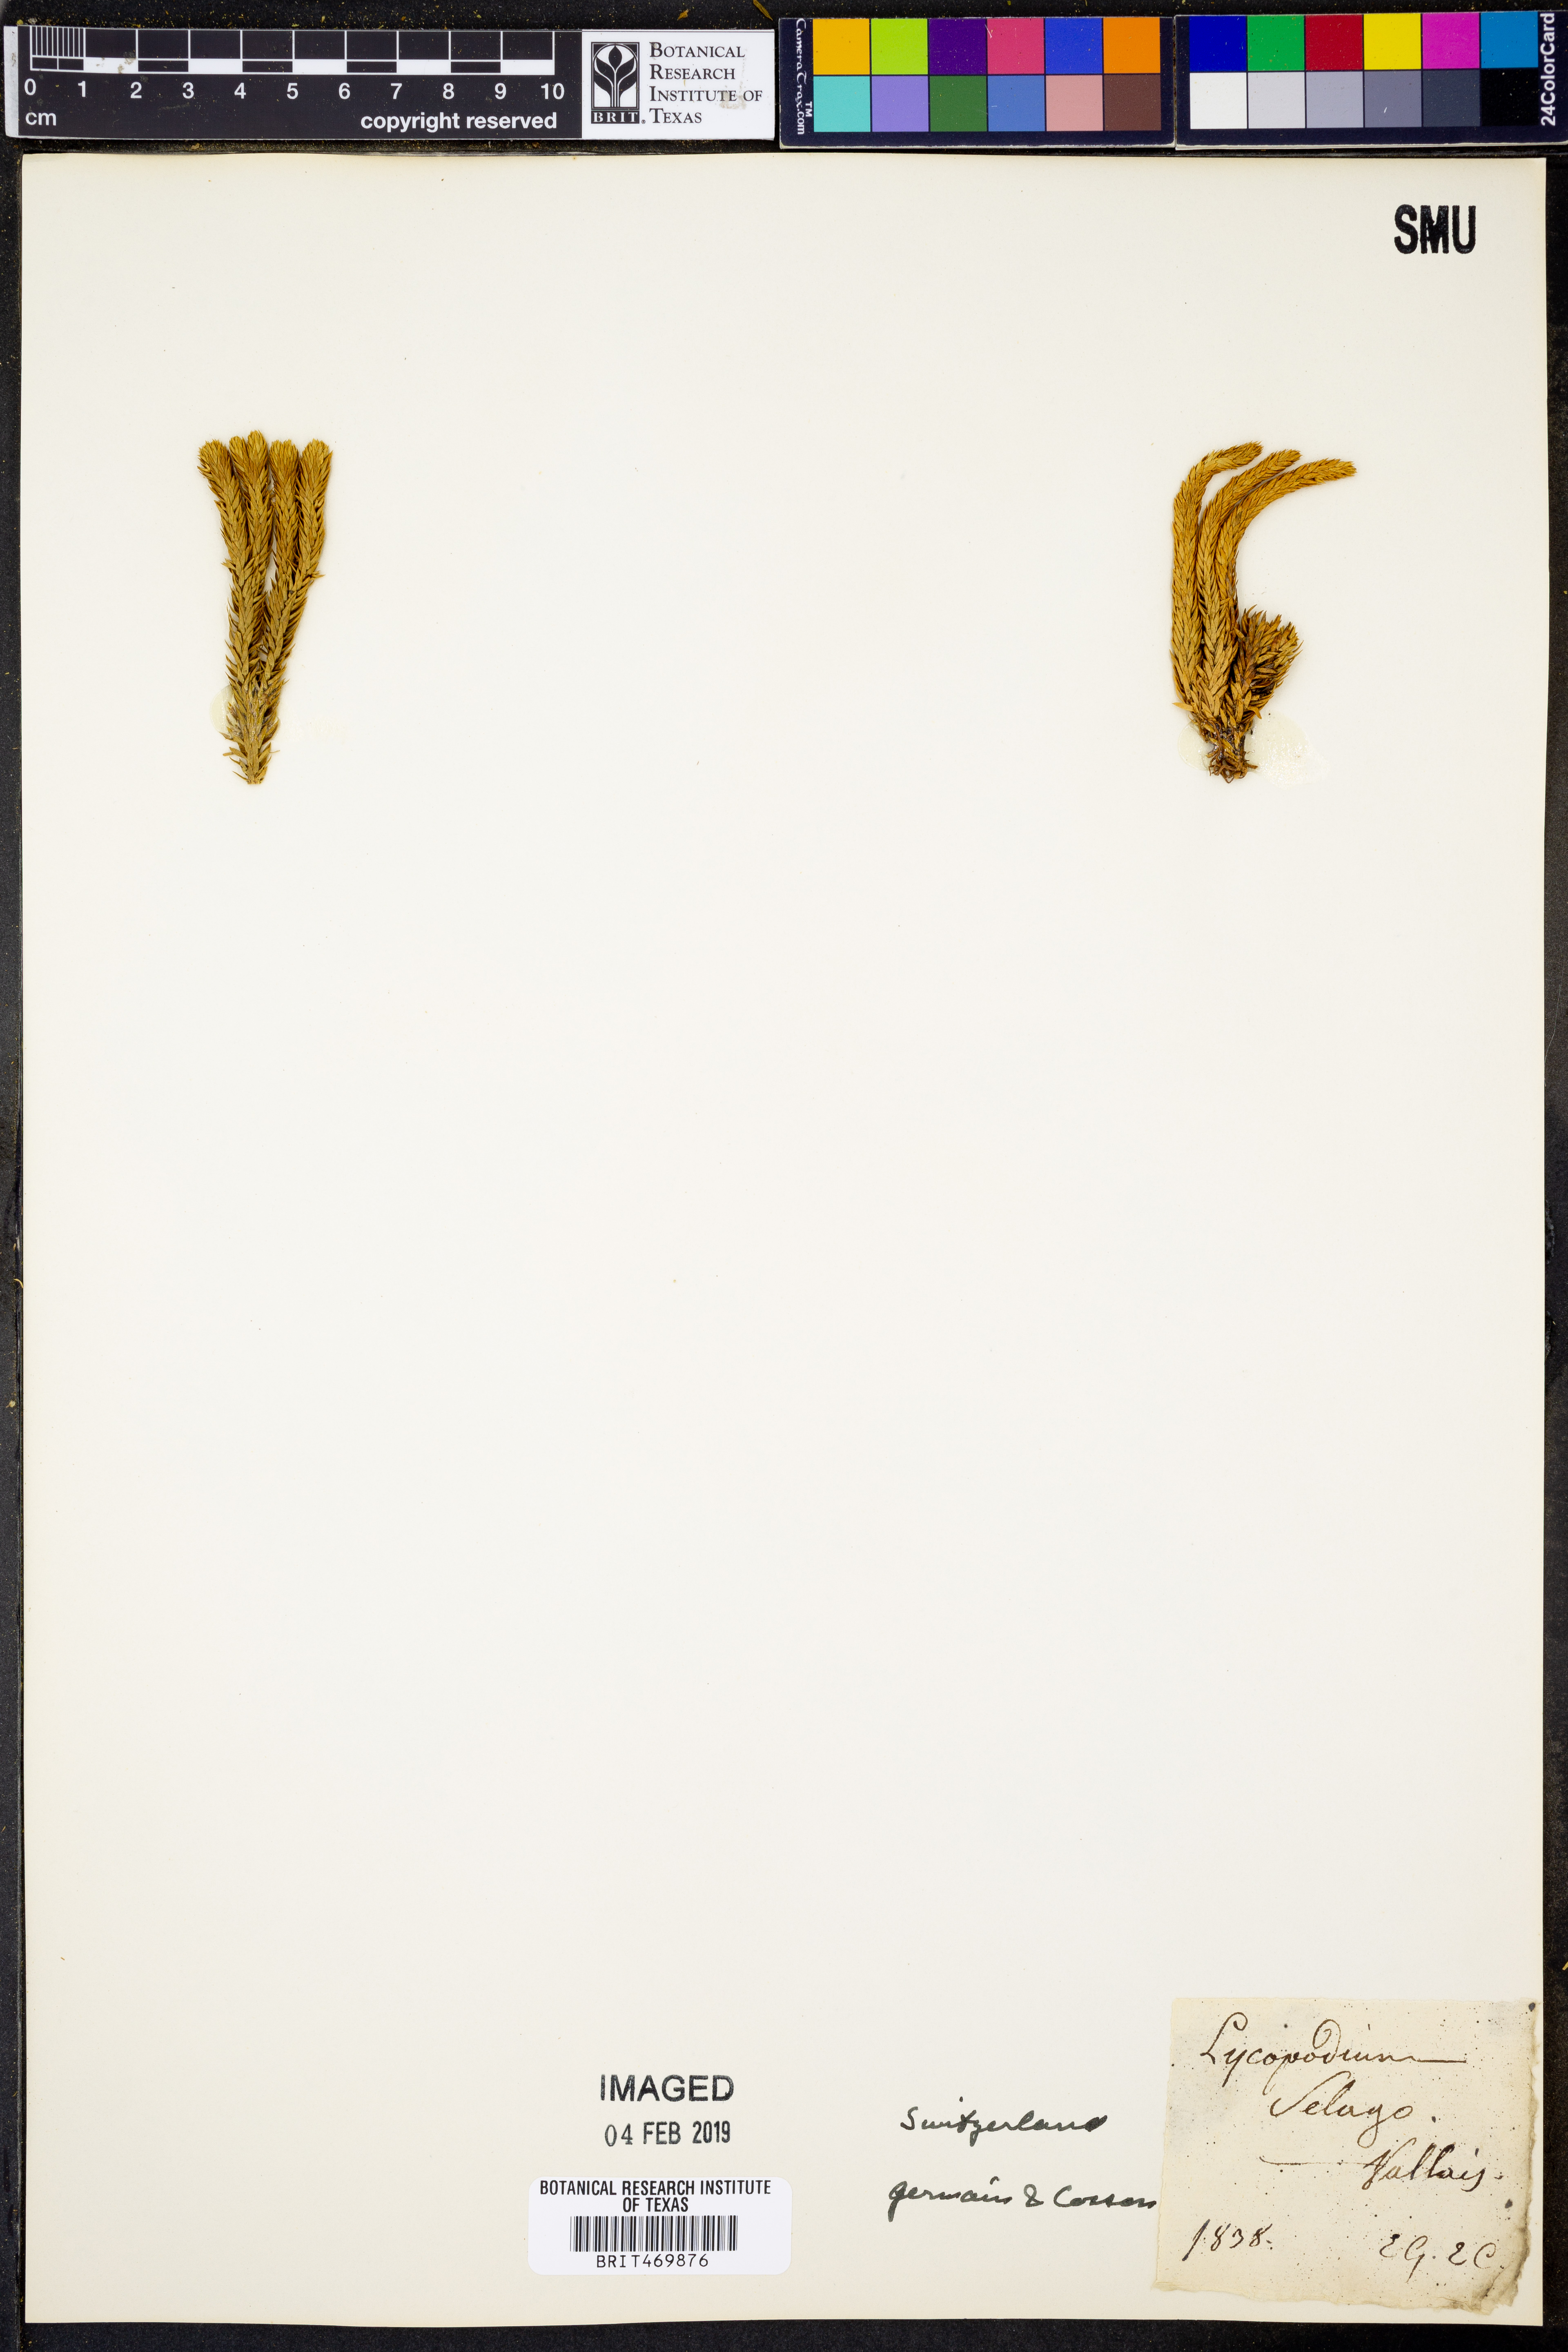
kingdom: Plantae
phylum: Tracheophyta
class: Lycopodiopsida
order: Lycopodiales
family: Lycopodiaceae
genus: Huperzia
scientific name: Huperzia selago
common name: Northern firmoss
